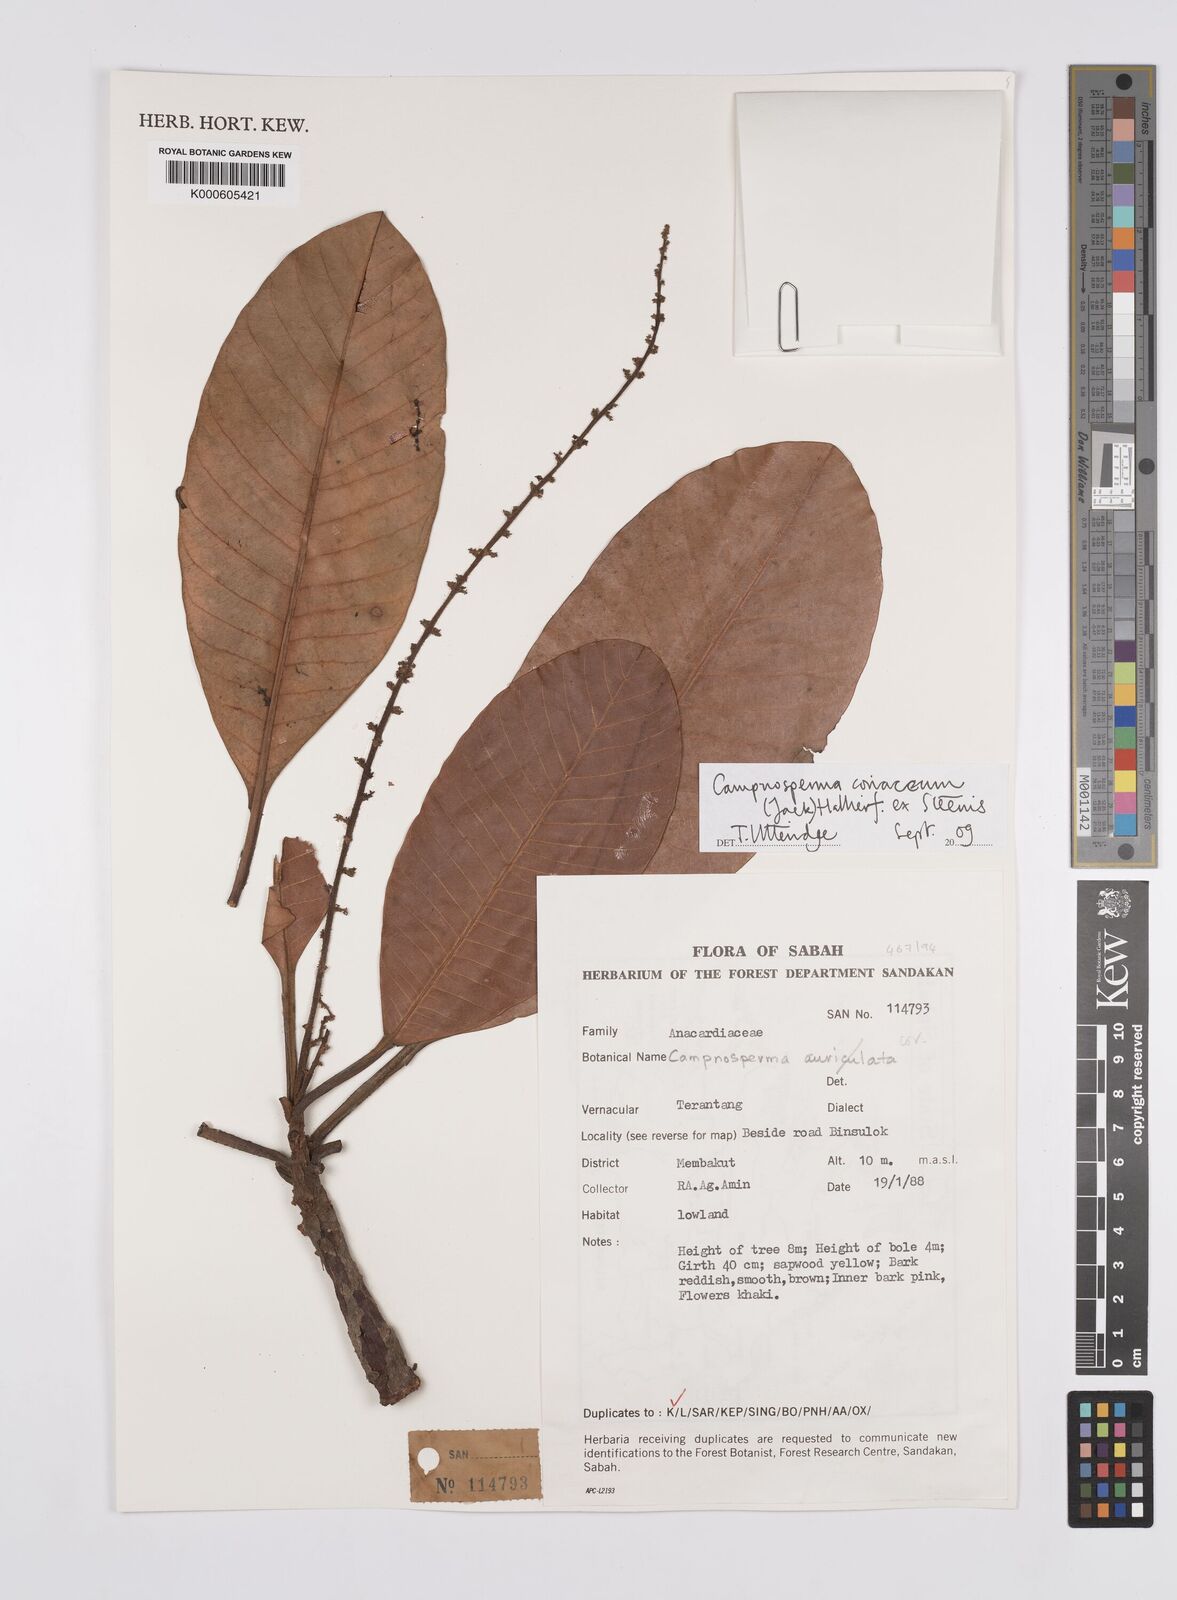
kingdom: Plantae
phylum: Tracheophyta
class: Magnoliopsida
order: Sapindales
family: Anacardiaceae
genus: Campnosperma
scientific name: Campnosperma
